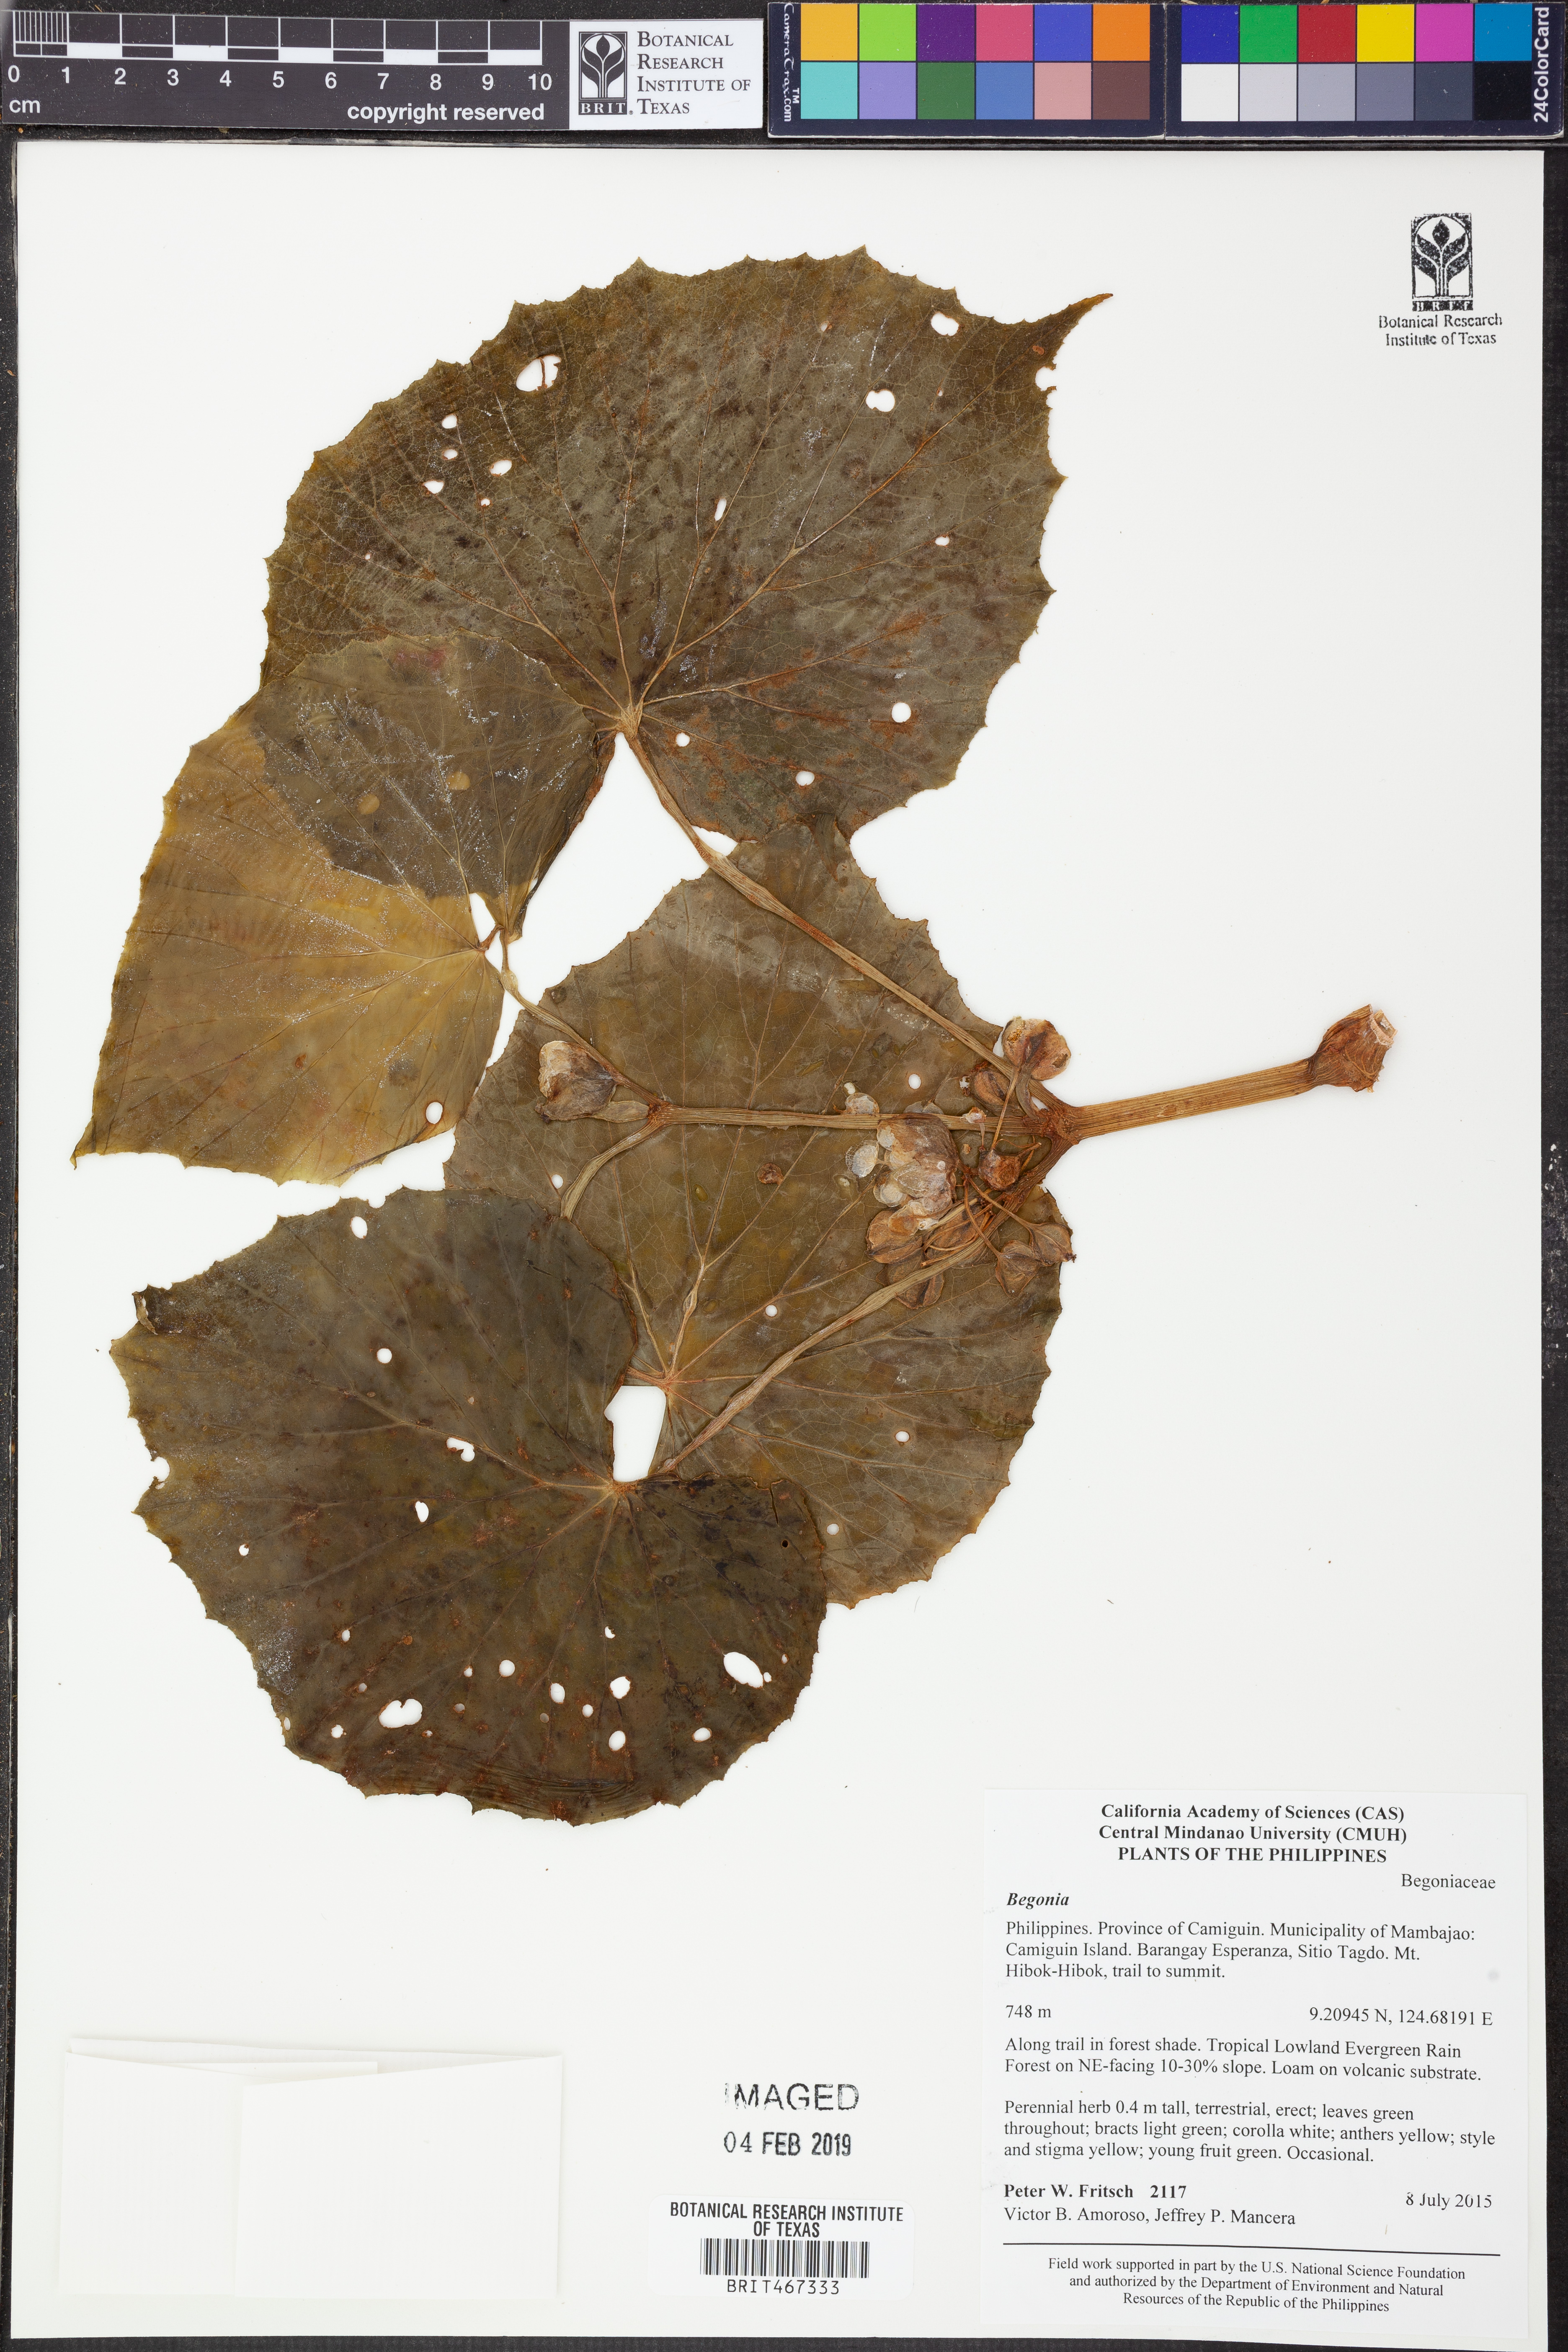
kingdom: Plantae
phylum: Tracheophyta
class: Magnoliopsida
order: Cucurbitales
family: Begoniaceae
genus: Begonia
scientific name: Begonia
